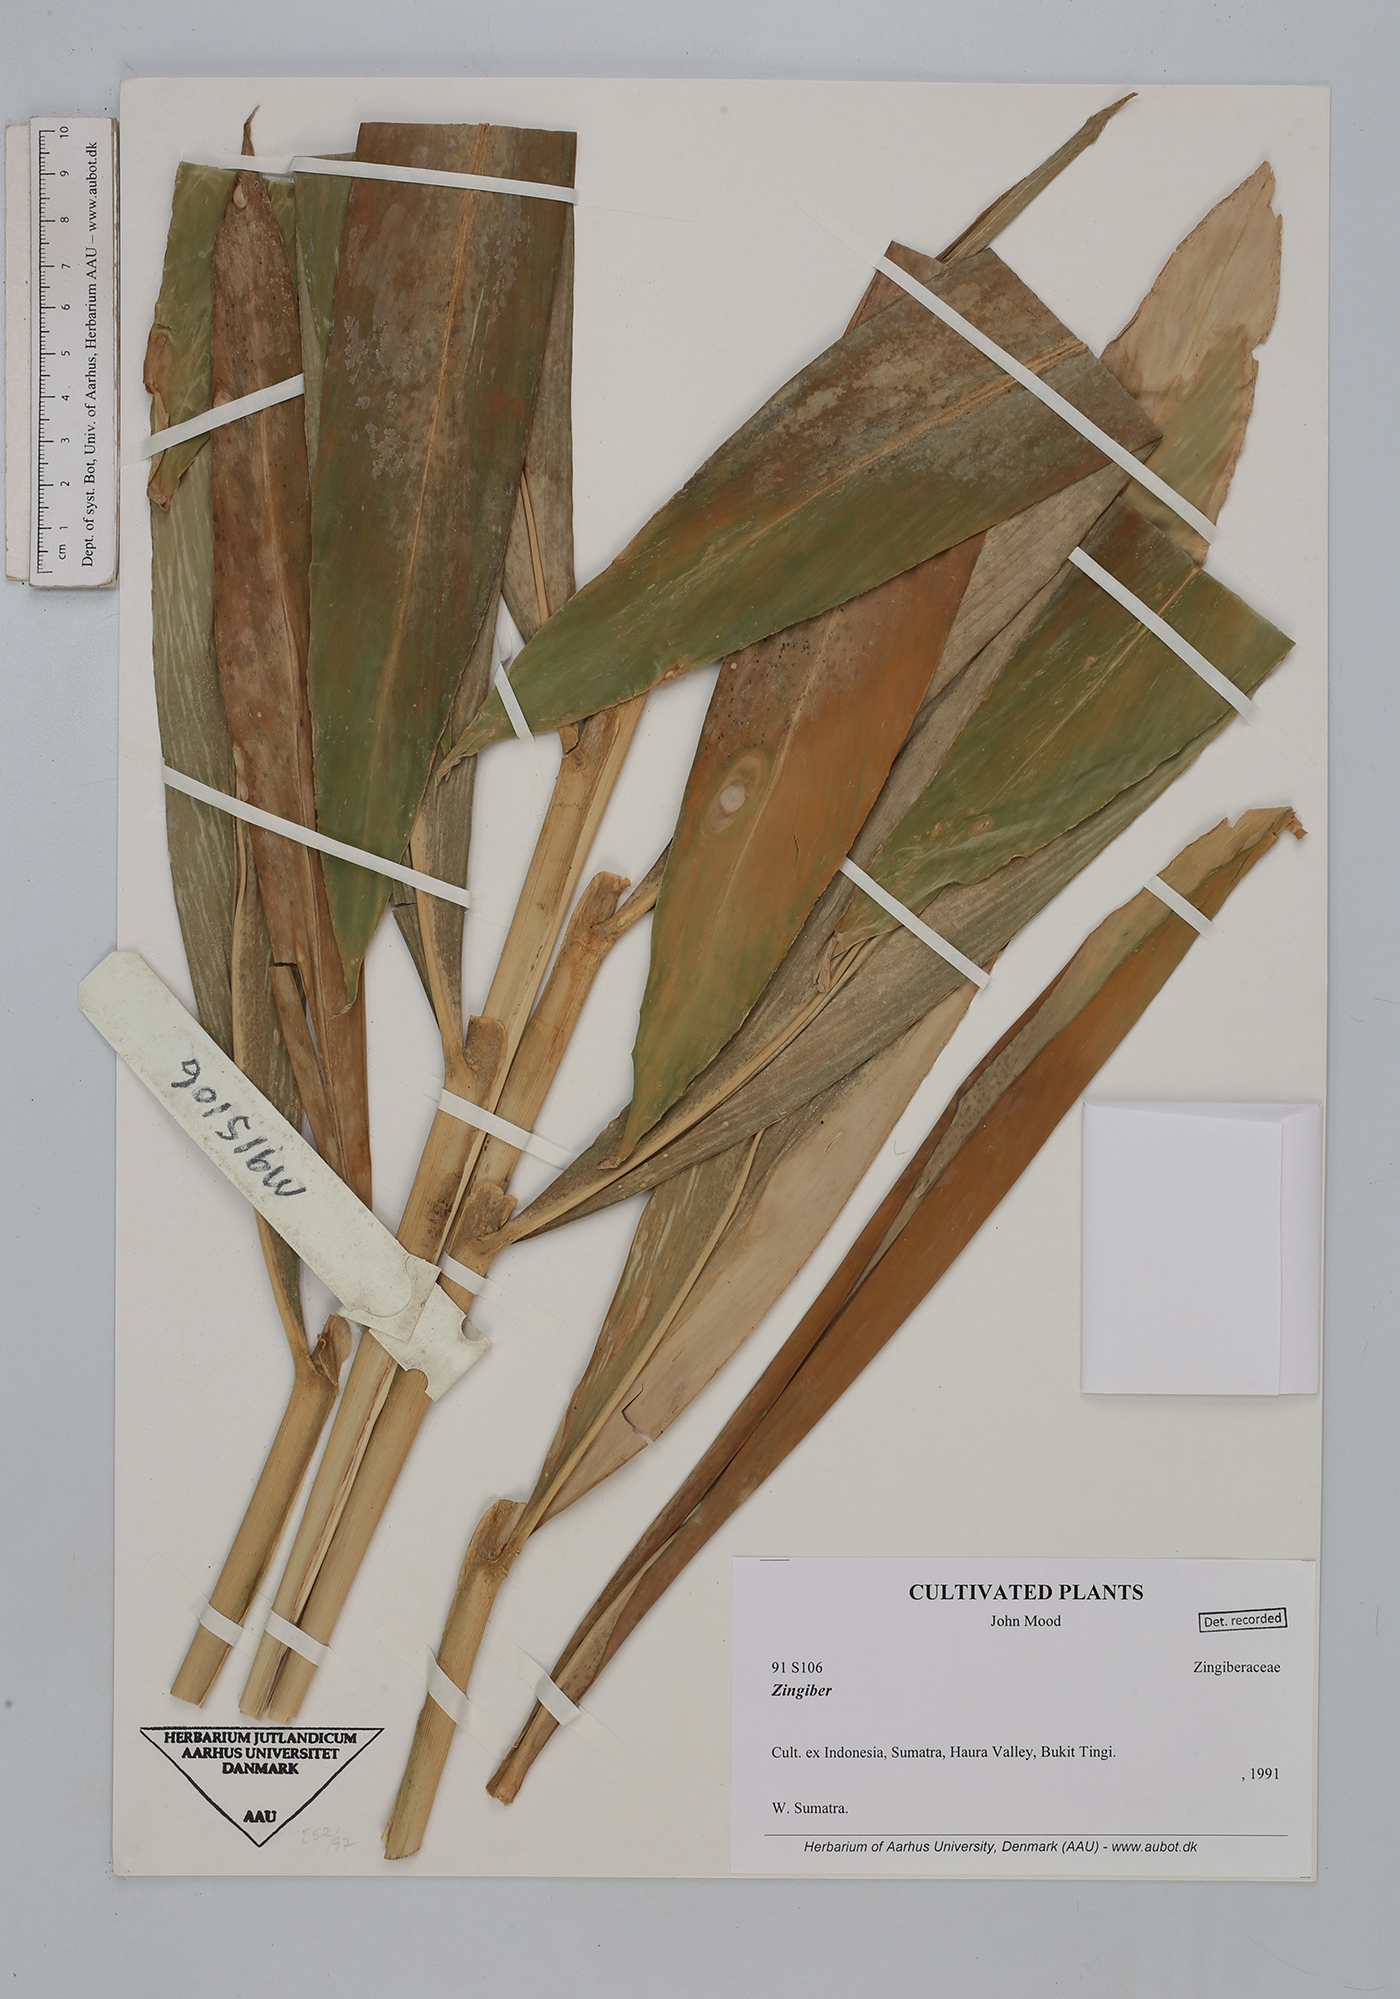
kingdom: Plantae
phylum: Tracheophyta
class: Liliopsida
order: Zingiberales
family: Zingiberaceae
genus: Zingiber
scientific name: Zingiber
